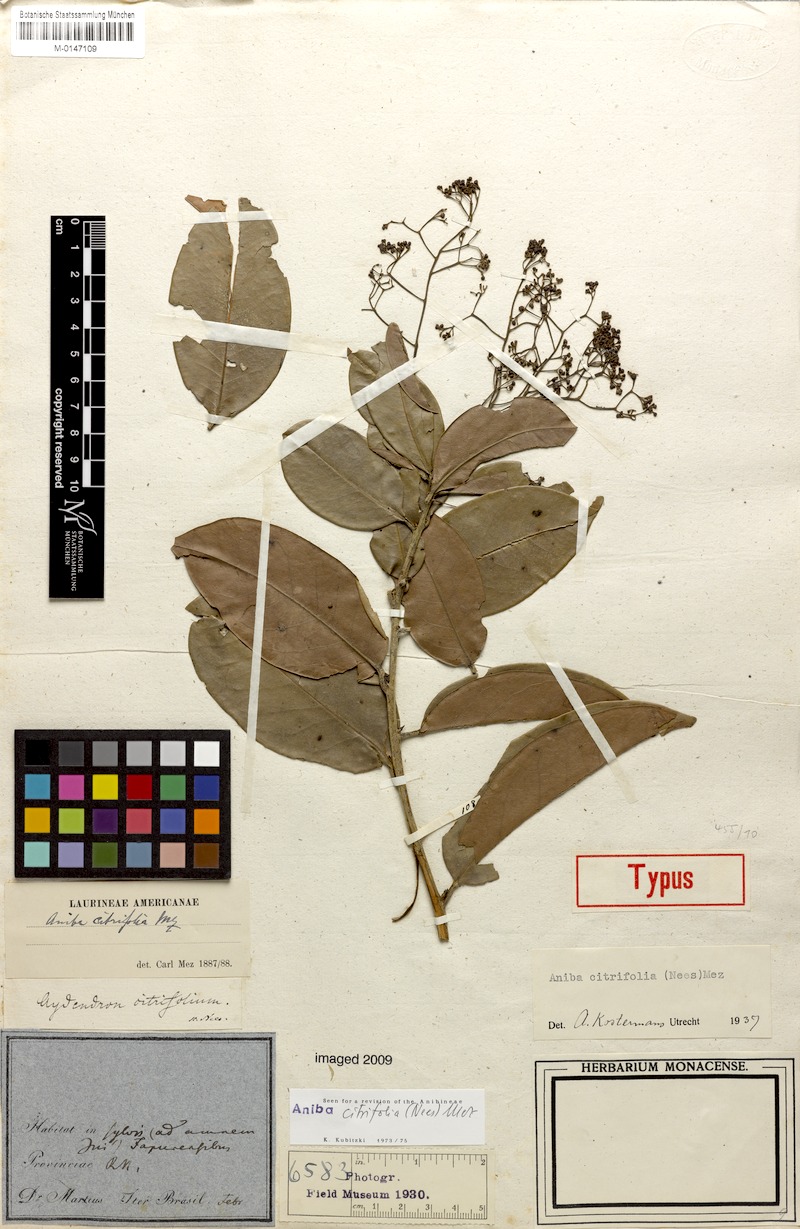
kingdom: Plantae
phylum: Tracheophyta
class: Magnoliopsida
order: Laurales
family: Lauraceae
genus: Aniba
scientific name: Aniba citrifolia
